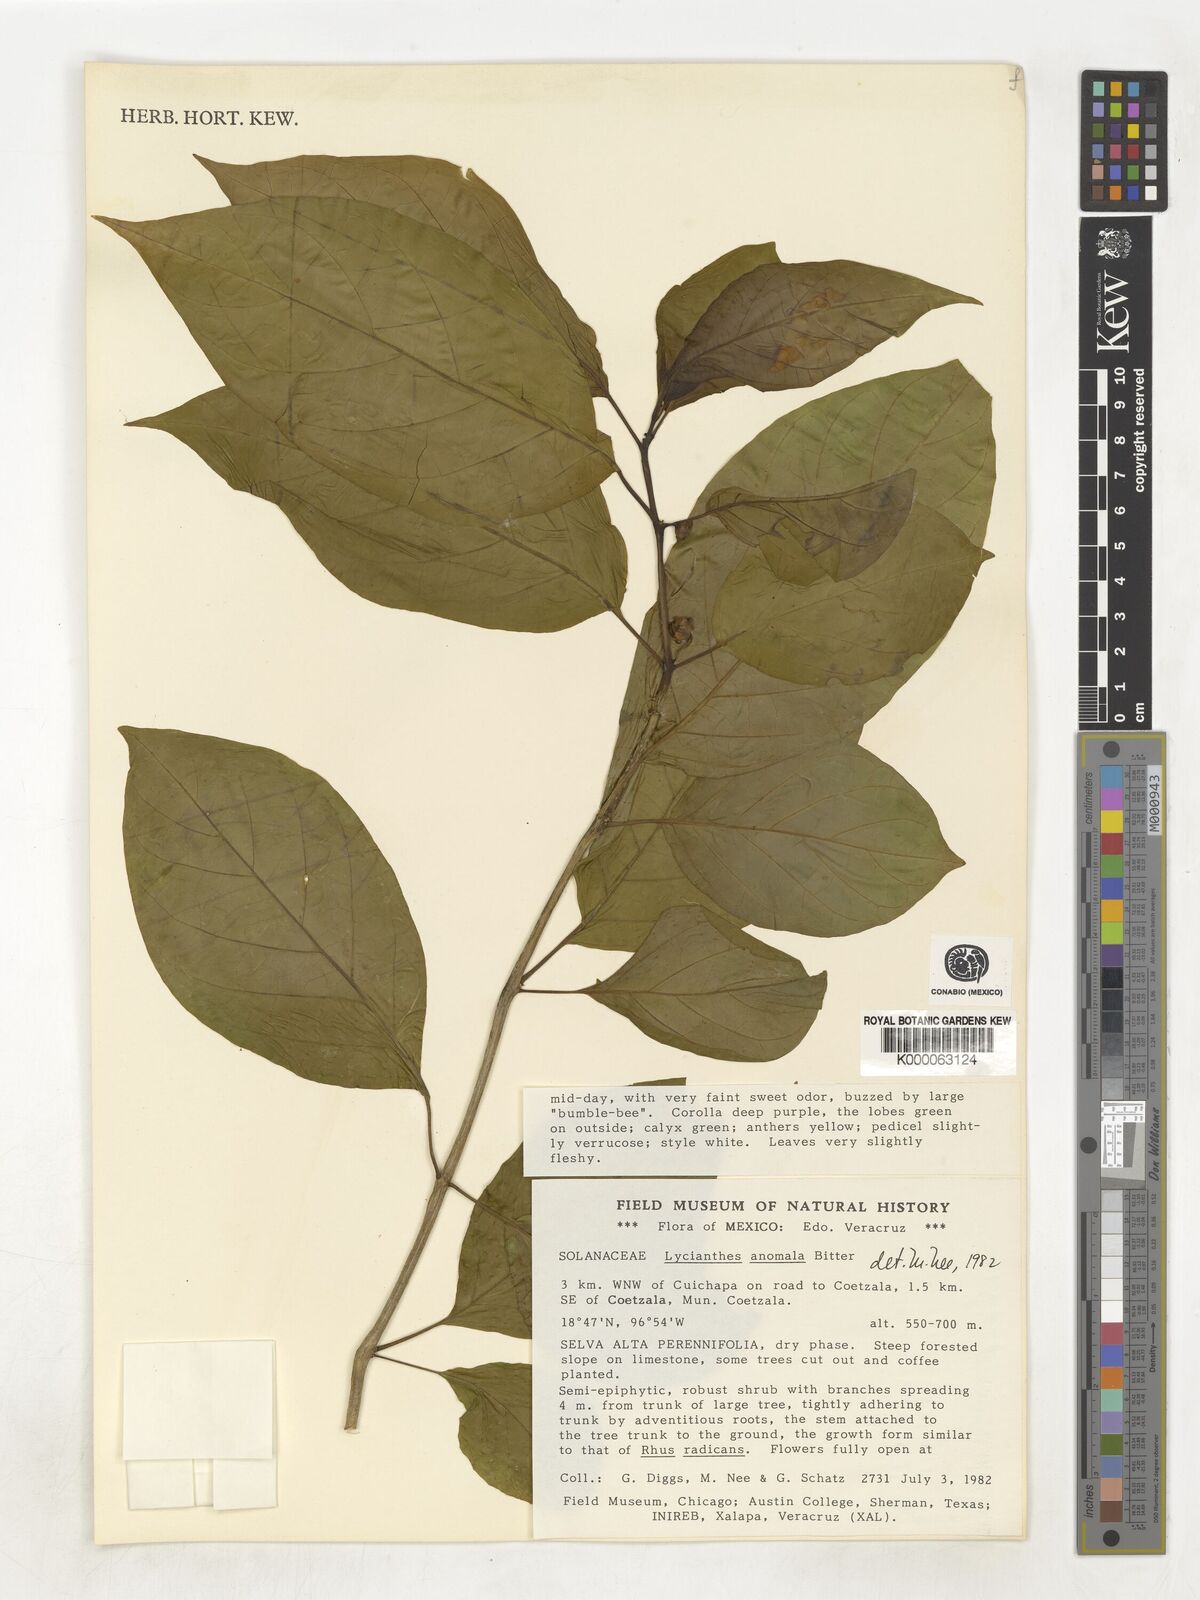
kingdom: Plantae
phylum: Tracheophyta
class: Magnoliopsida
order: Solanales
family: Solanaceae
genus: Lycianthes
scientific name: Lycianthes anomala
